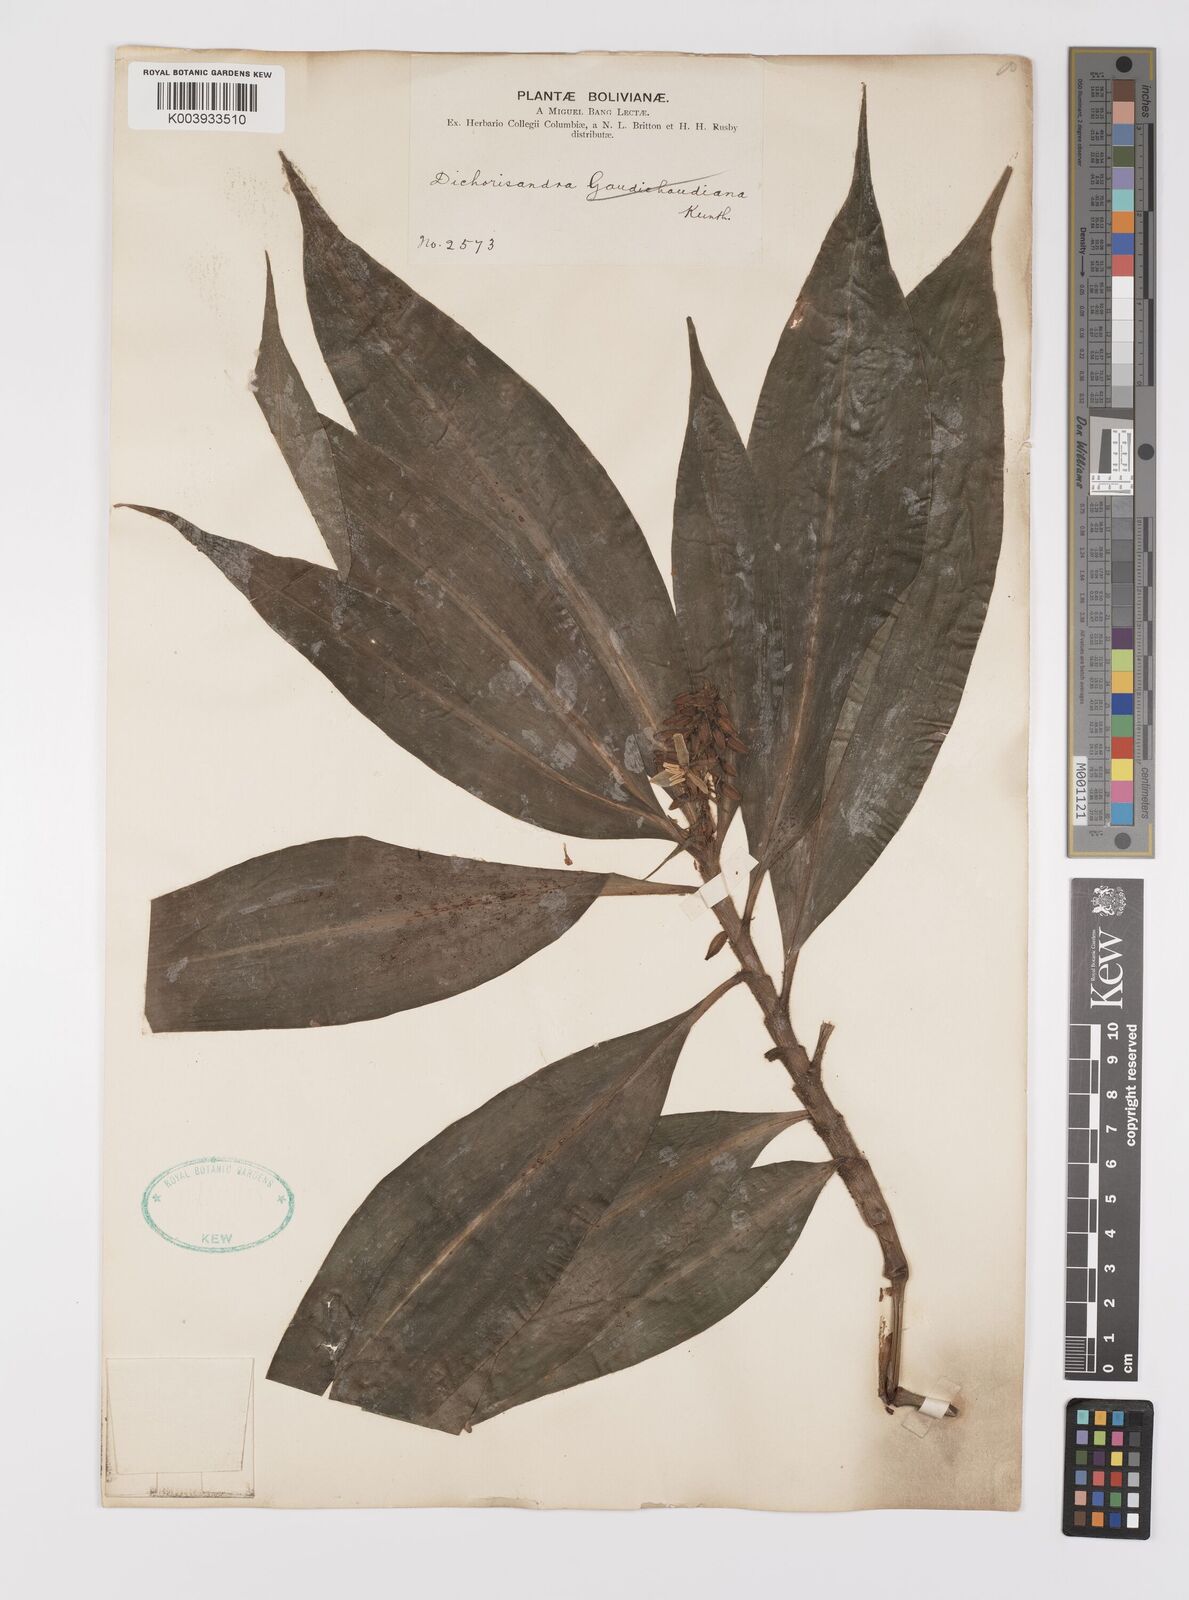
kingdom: Plantae
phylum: Tracheophyta
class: Liliopsida
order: Commelinales
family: Commelinaceae
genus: Dichorisandra
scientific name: Dichorisandra gaudichaudiana
